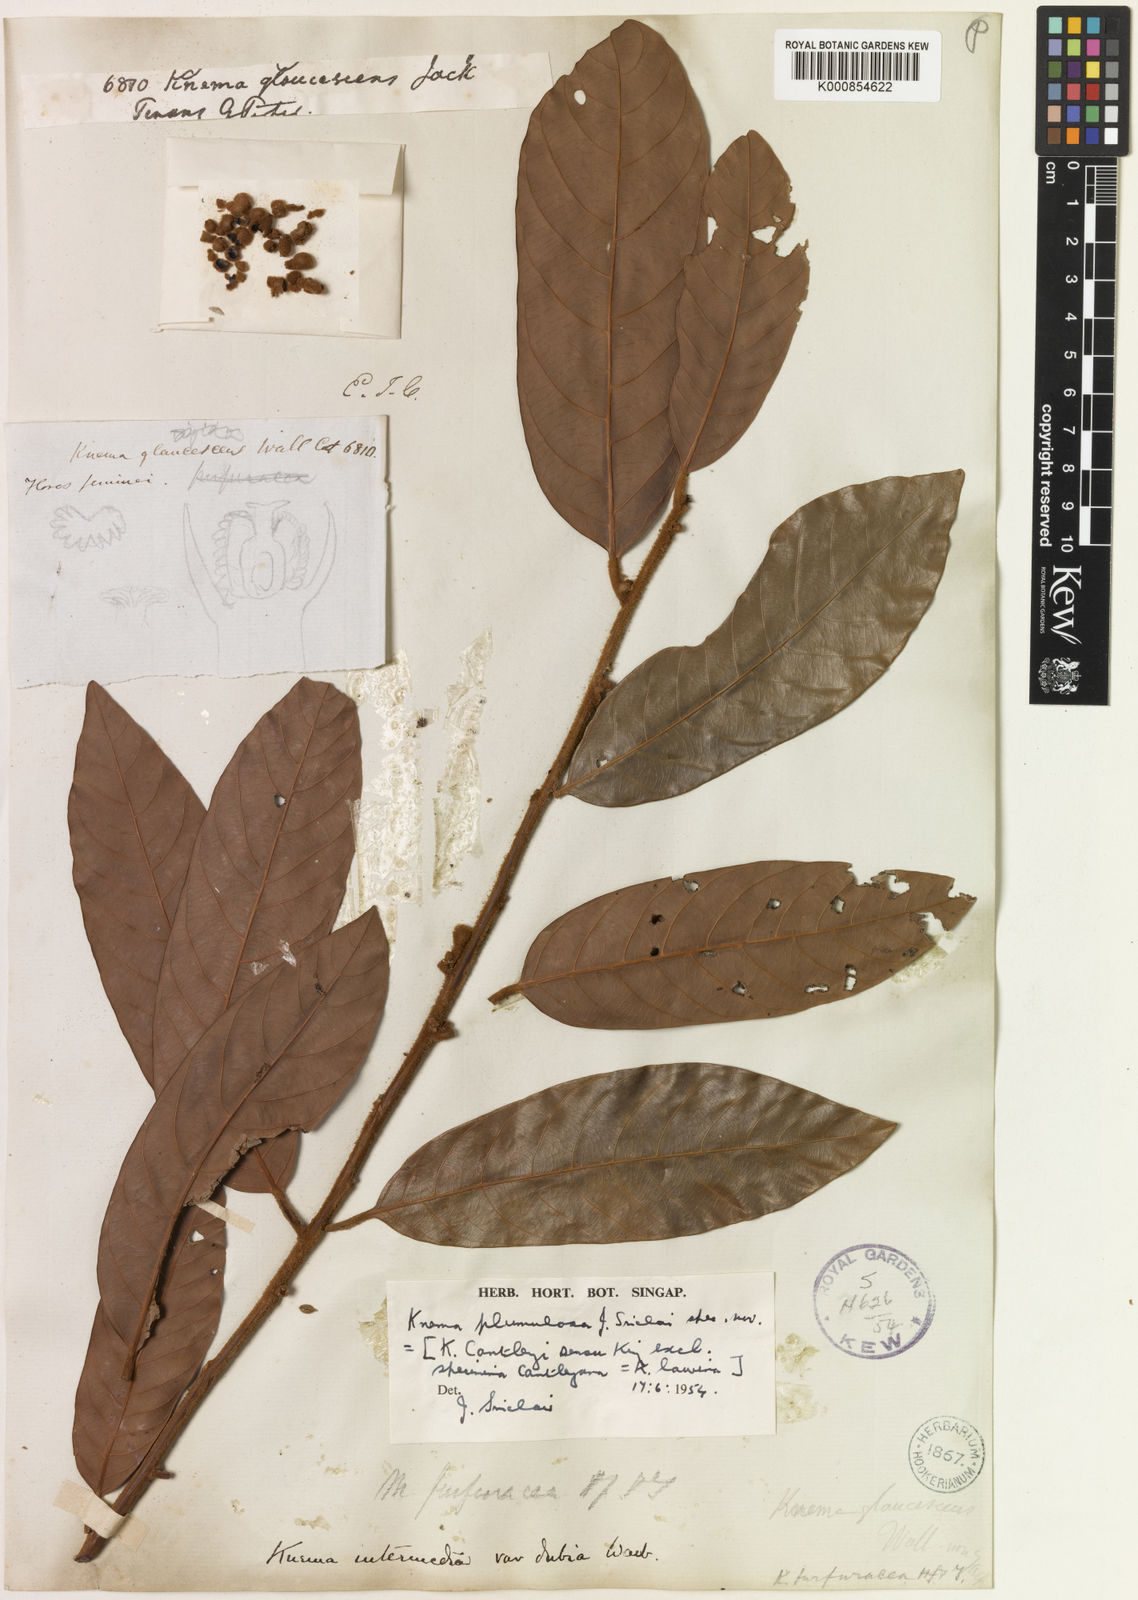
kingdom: Plantae
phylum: Tracheophyta
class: Magnoliopsida
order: Magnoliales
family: Myristicaceae
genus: Knema
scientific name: Knema plumulosa
